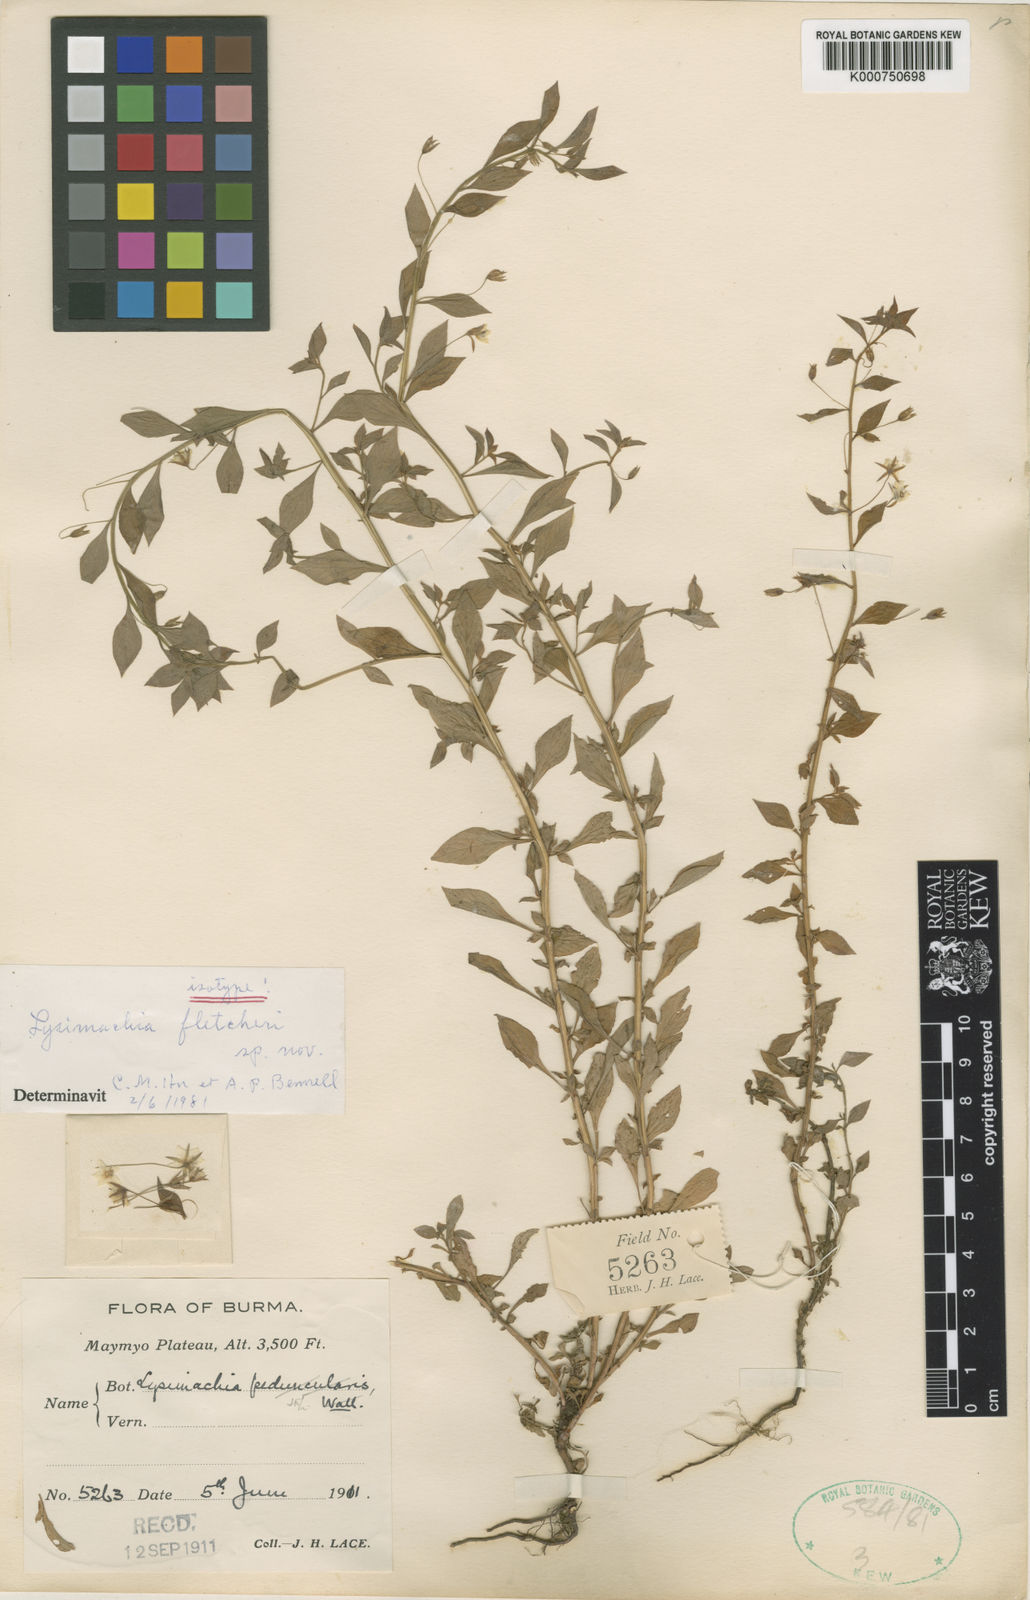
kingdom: Plantae
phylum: Tracheophyta
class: Magnoliopsida
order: Ericales
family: Primulaceae
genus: Lysimachia
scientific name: Lysimachia fletcheri
